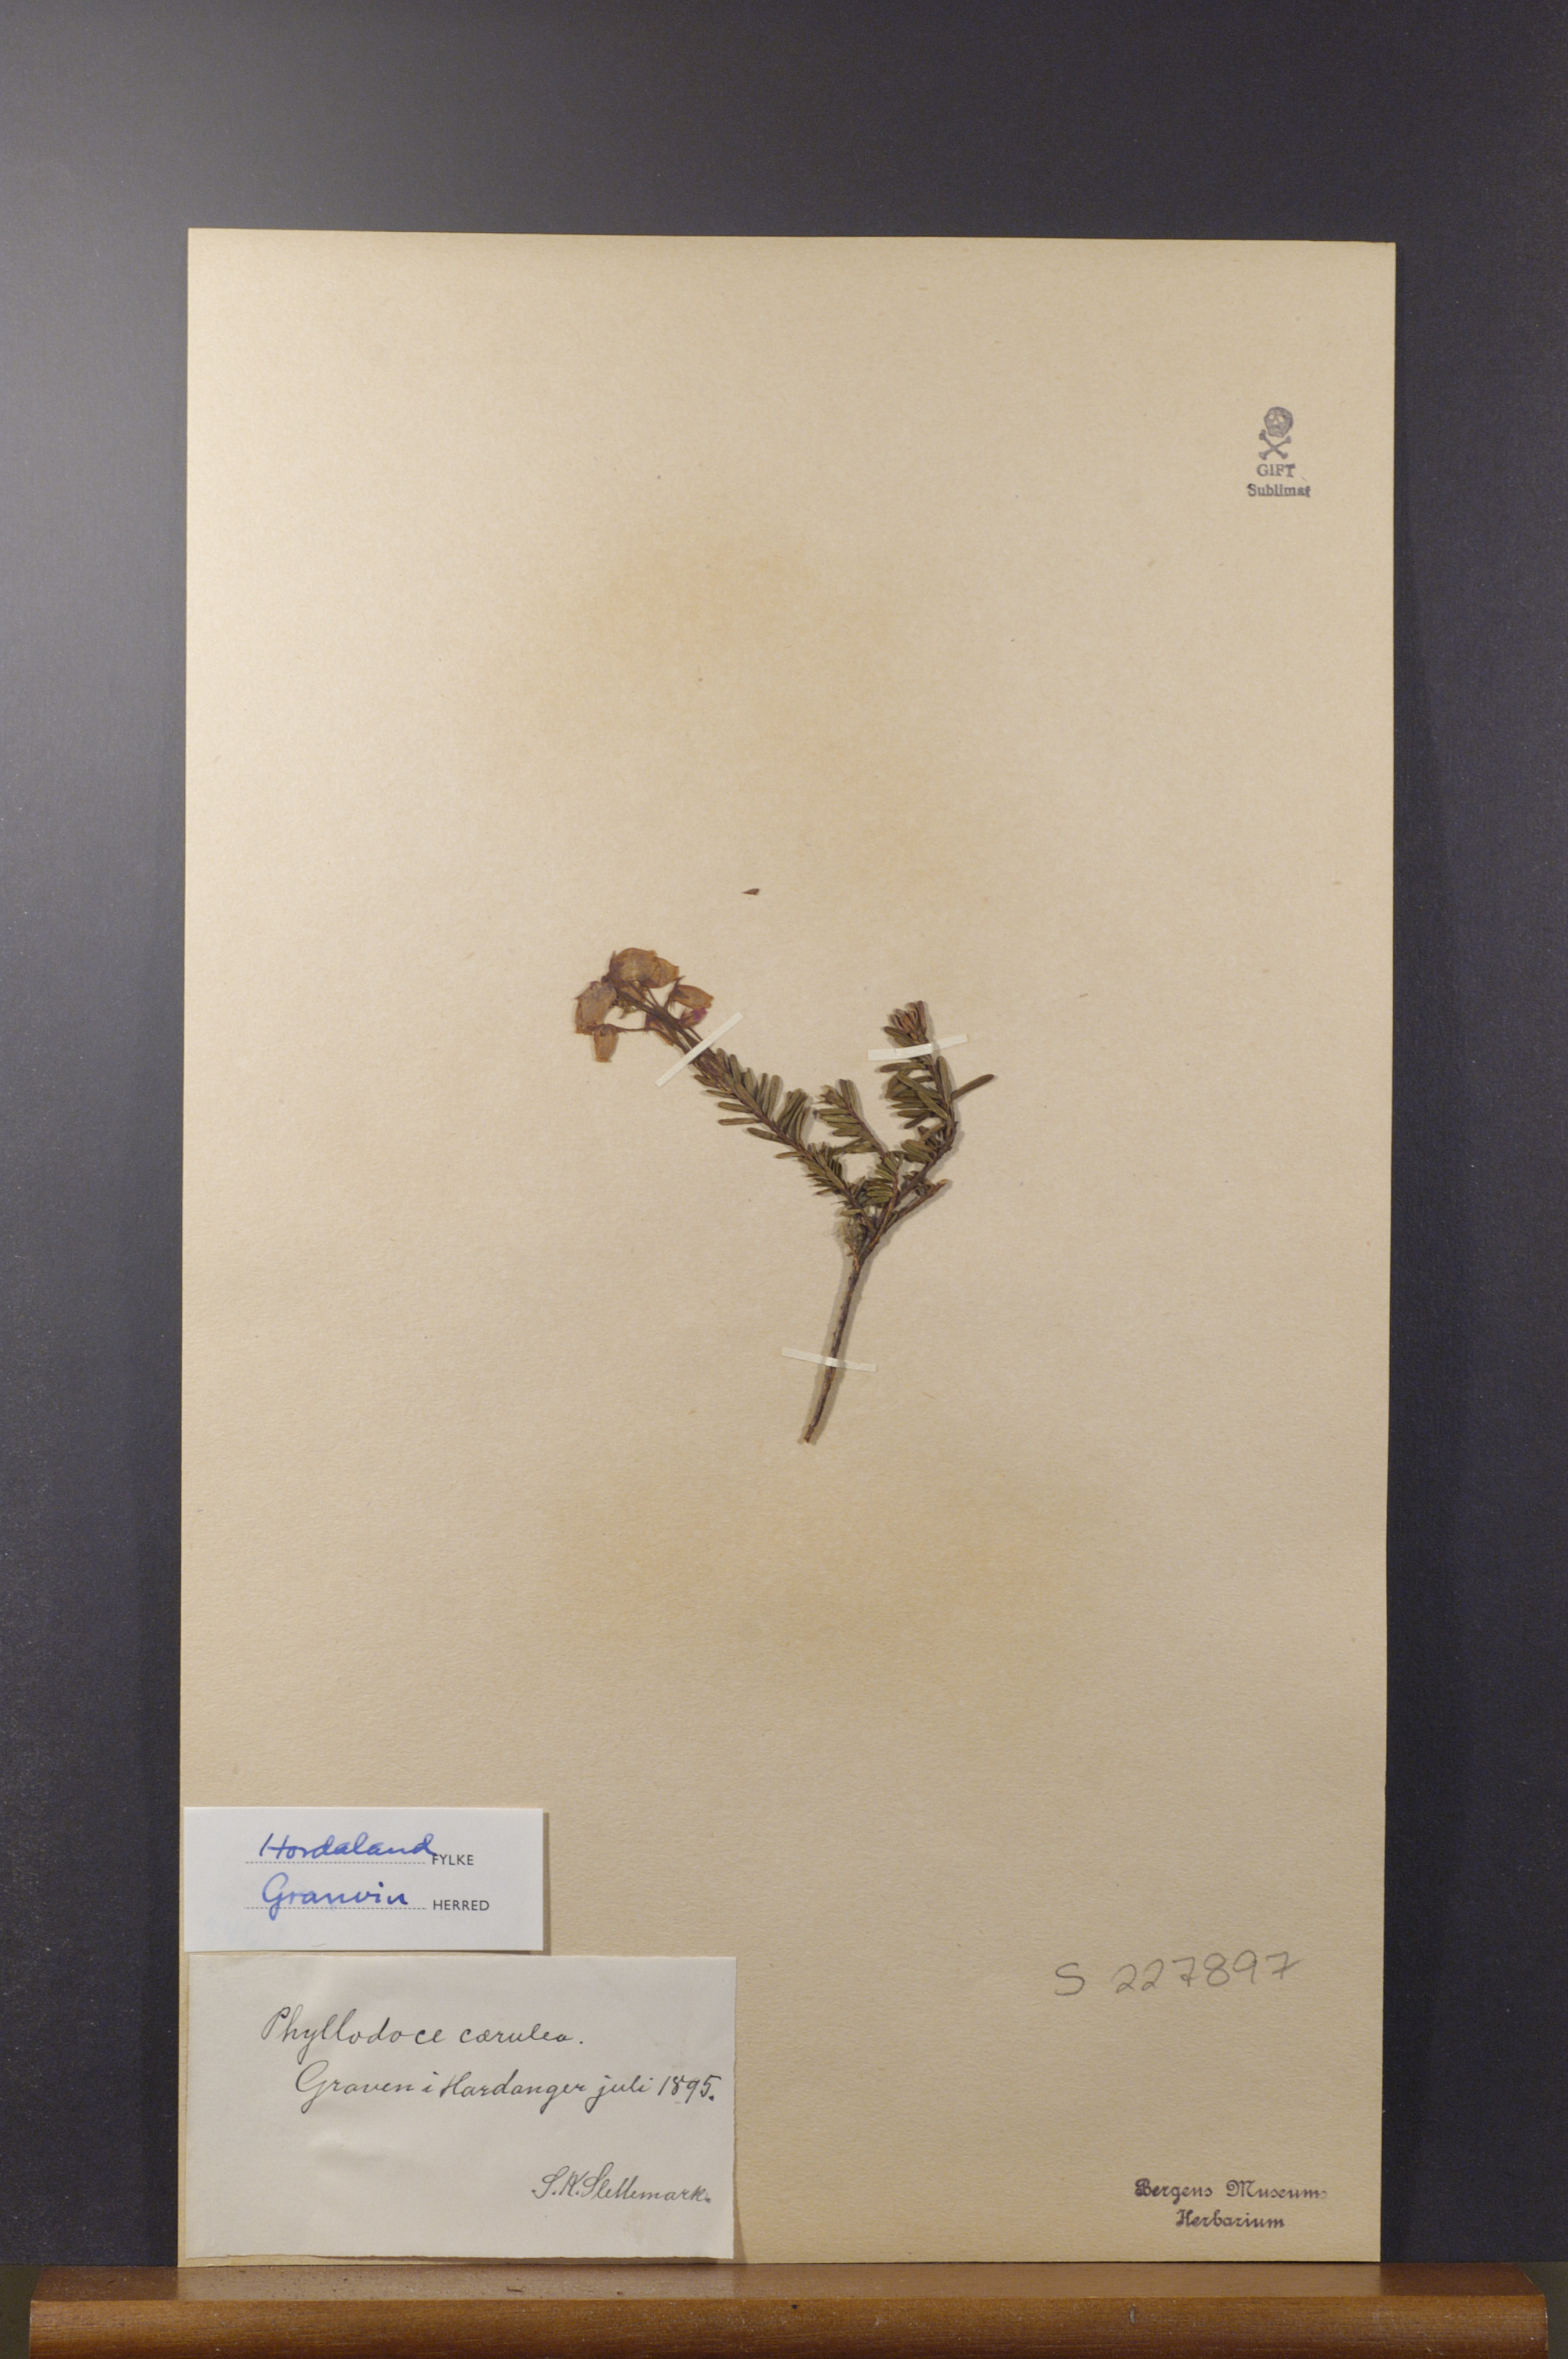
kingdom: Plantae
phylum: Tracheophyta
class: Magnoliopsida
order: Ericales
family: Ericaceae
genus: Phyllodoce
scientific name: Phyllodoce caerulea
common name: Blue heath
